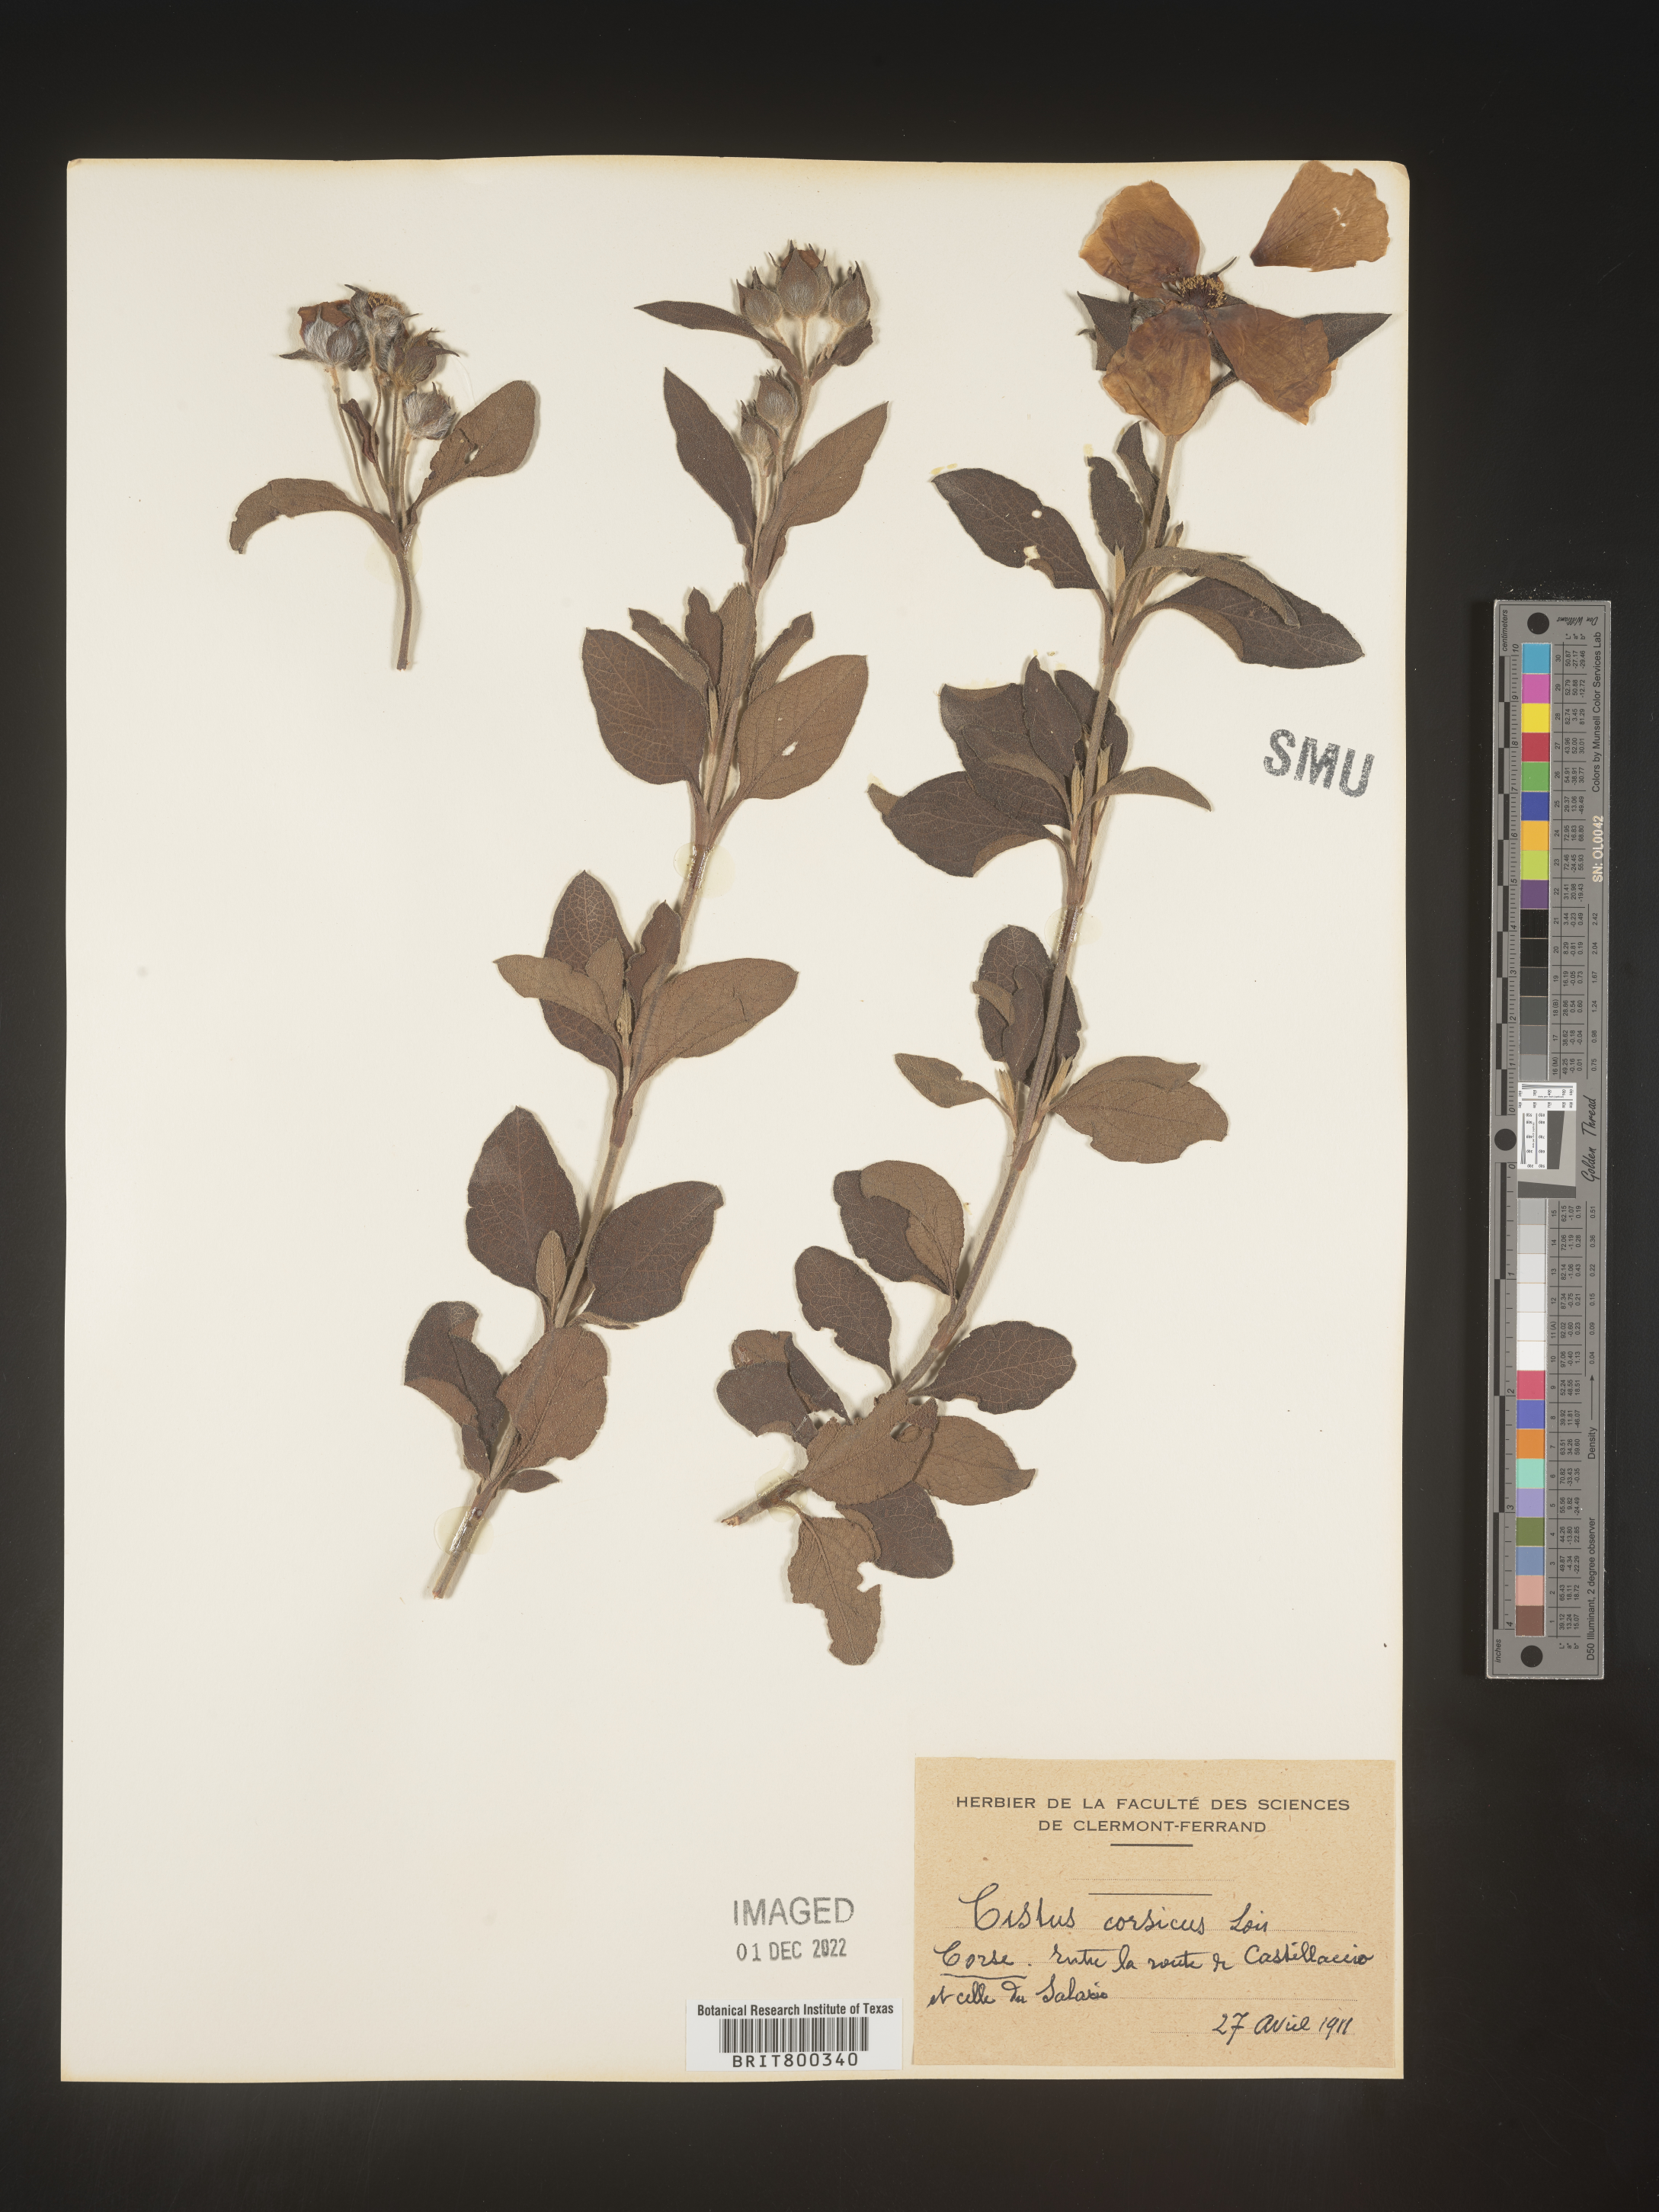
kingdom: Plantae
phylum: Tracheophyta
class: Magnoliopsida
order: Malvales
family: Cistaceae
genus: Cistus
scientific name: Cistus
